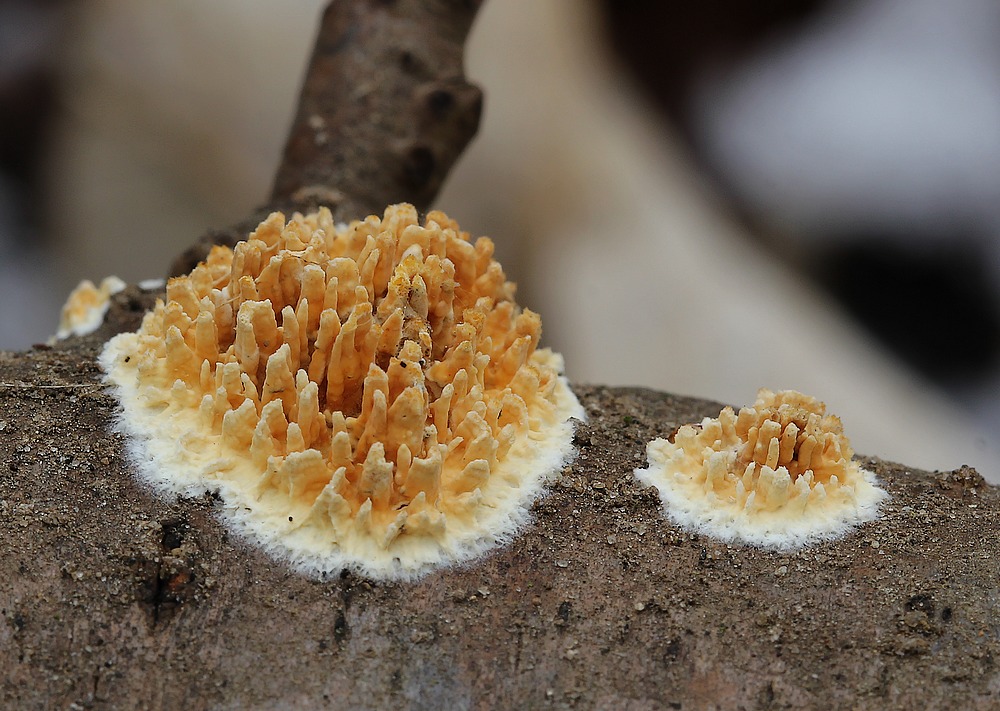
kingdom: Fungi
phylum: Basidiomycota
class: Agaricomycetes
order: Hymenochaetales
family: Schizoporaceae
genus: Xylodon
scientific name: Xylodon radula
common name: grovtandet kalkskind
